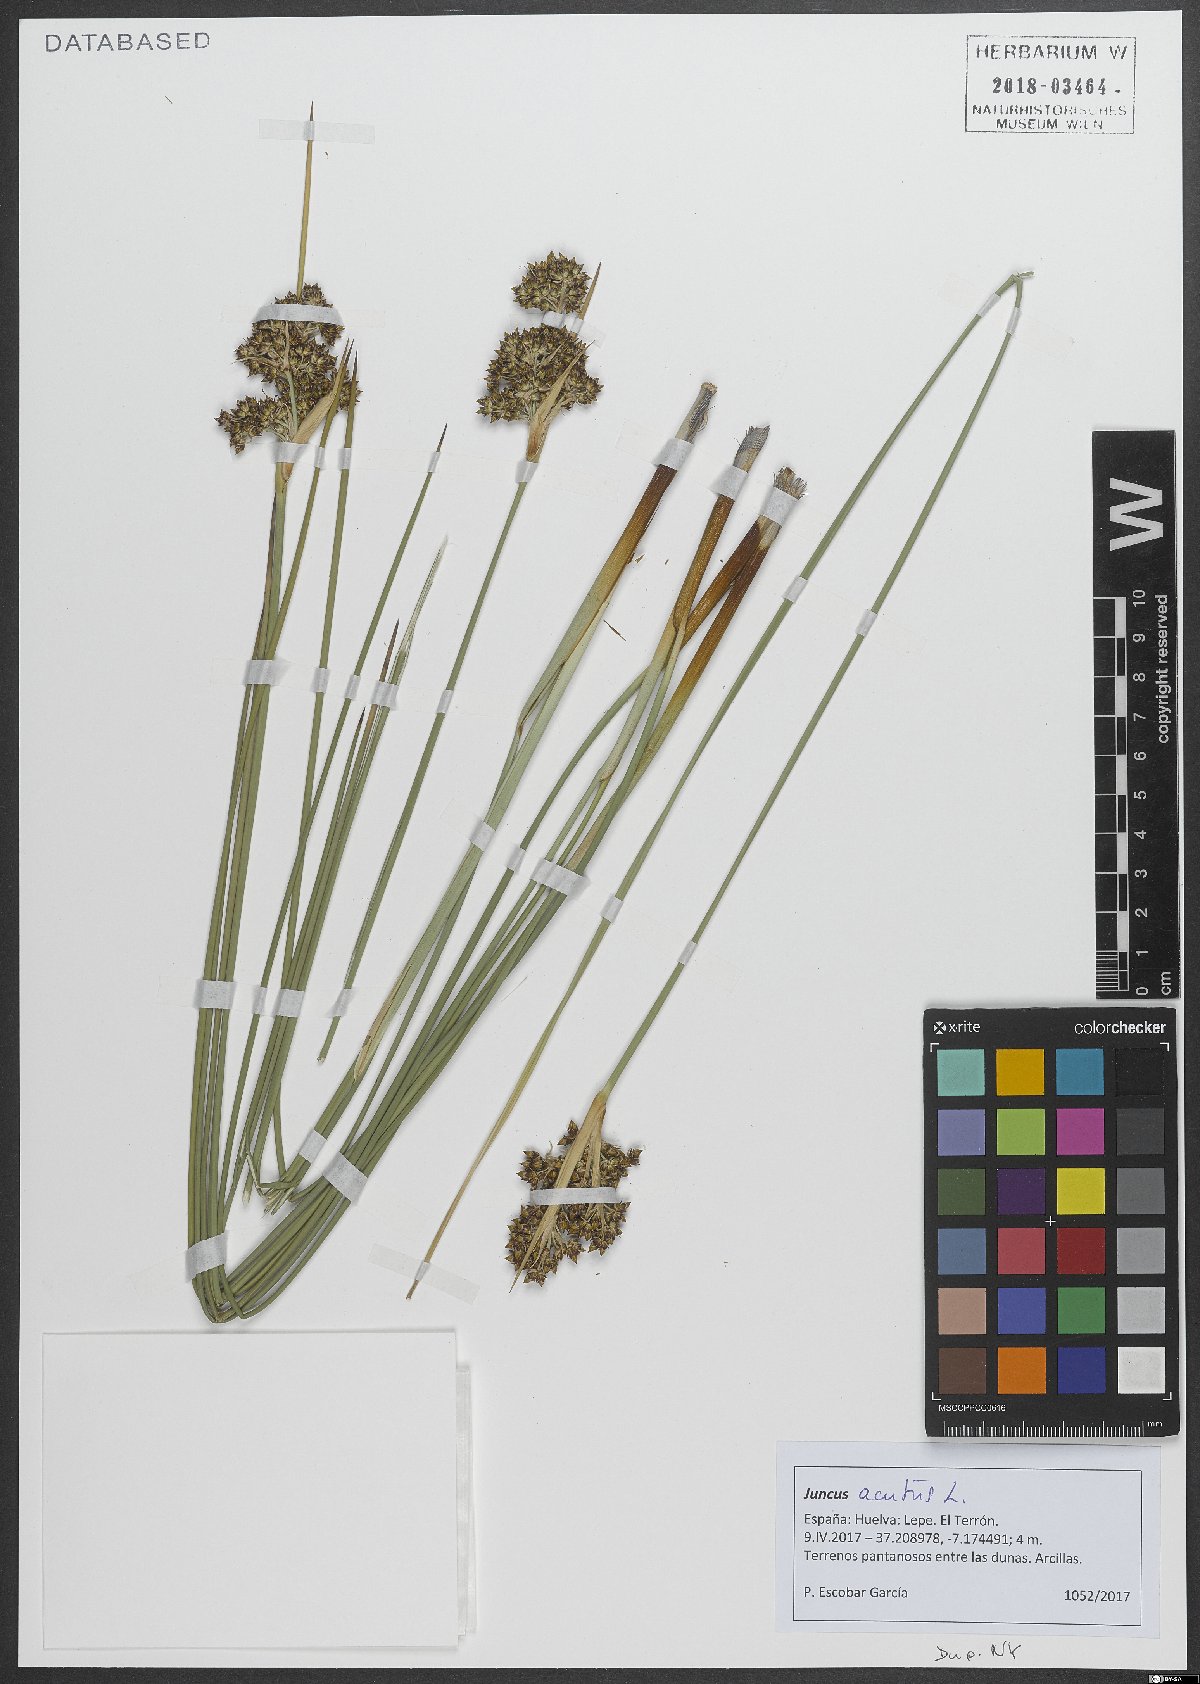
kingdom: Plantae
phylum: Tracheophyta
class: Liliopsida
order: Poales
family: Juncaceae
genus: Juncus
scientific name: Juncus acutus
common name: Sharp rush
